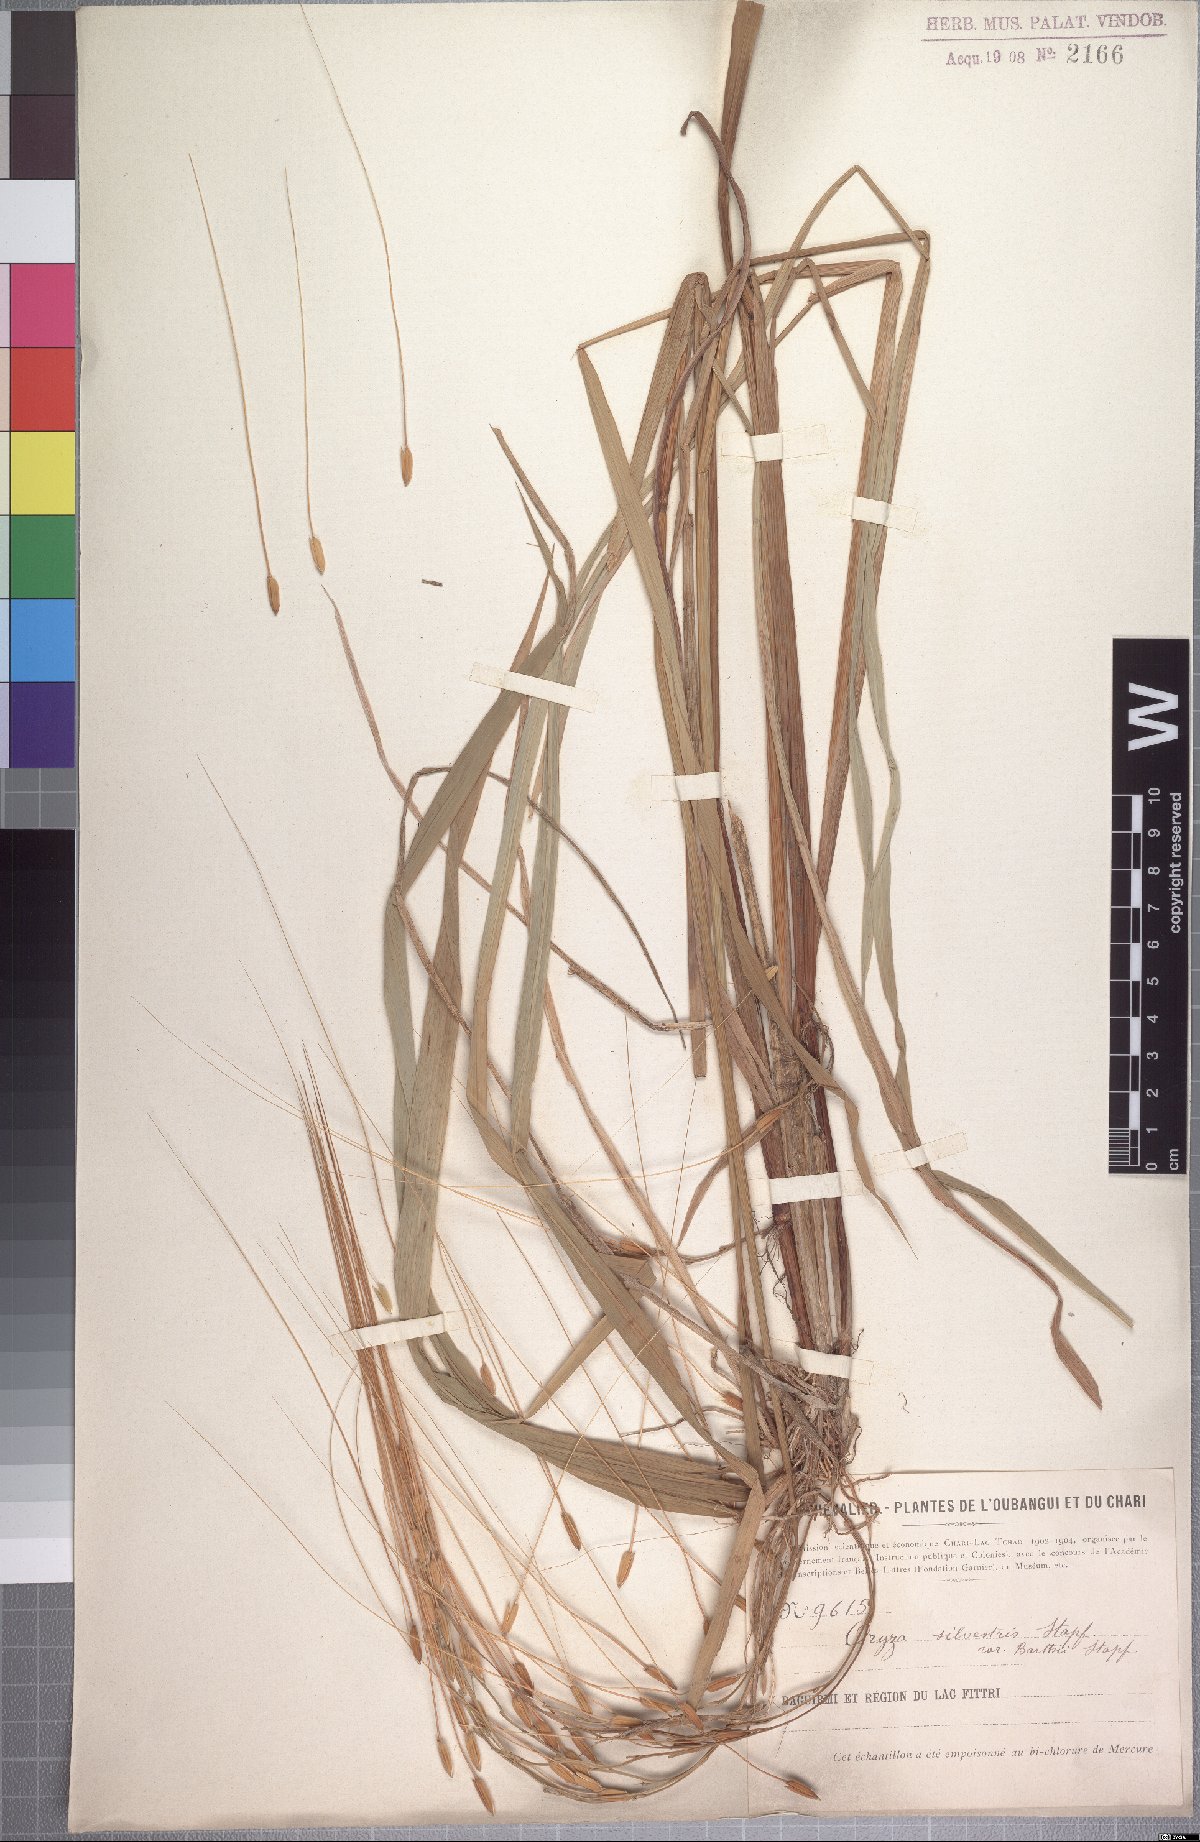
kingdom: Plantae
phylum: Tracheophyta
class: Liliopsida
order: Poales
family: Poaceae
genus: Oryza
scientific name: Oryza barthii
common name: Wild rice
